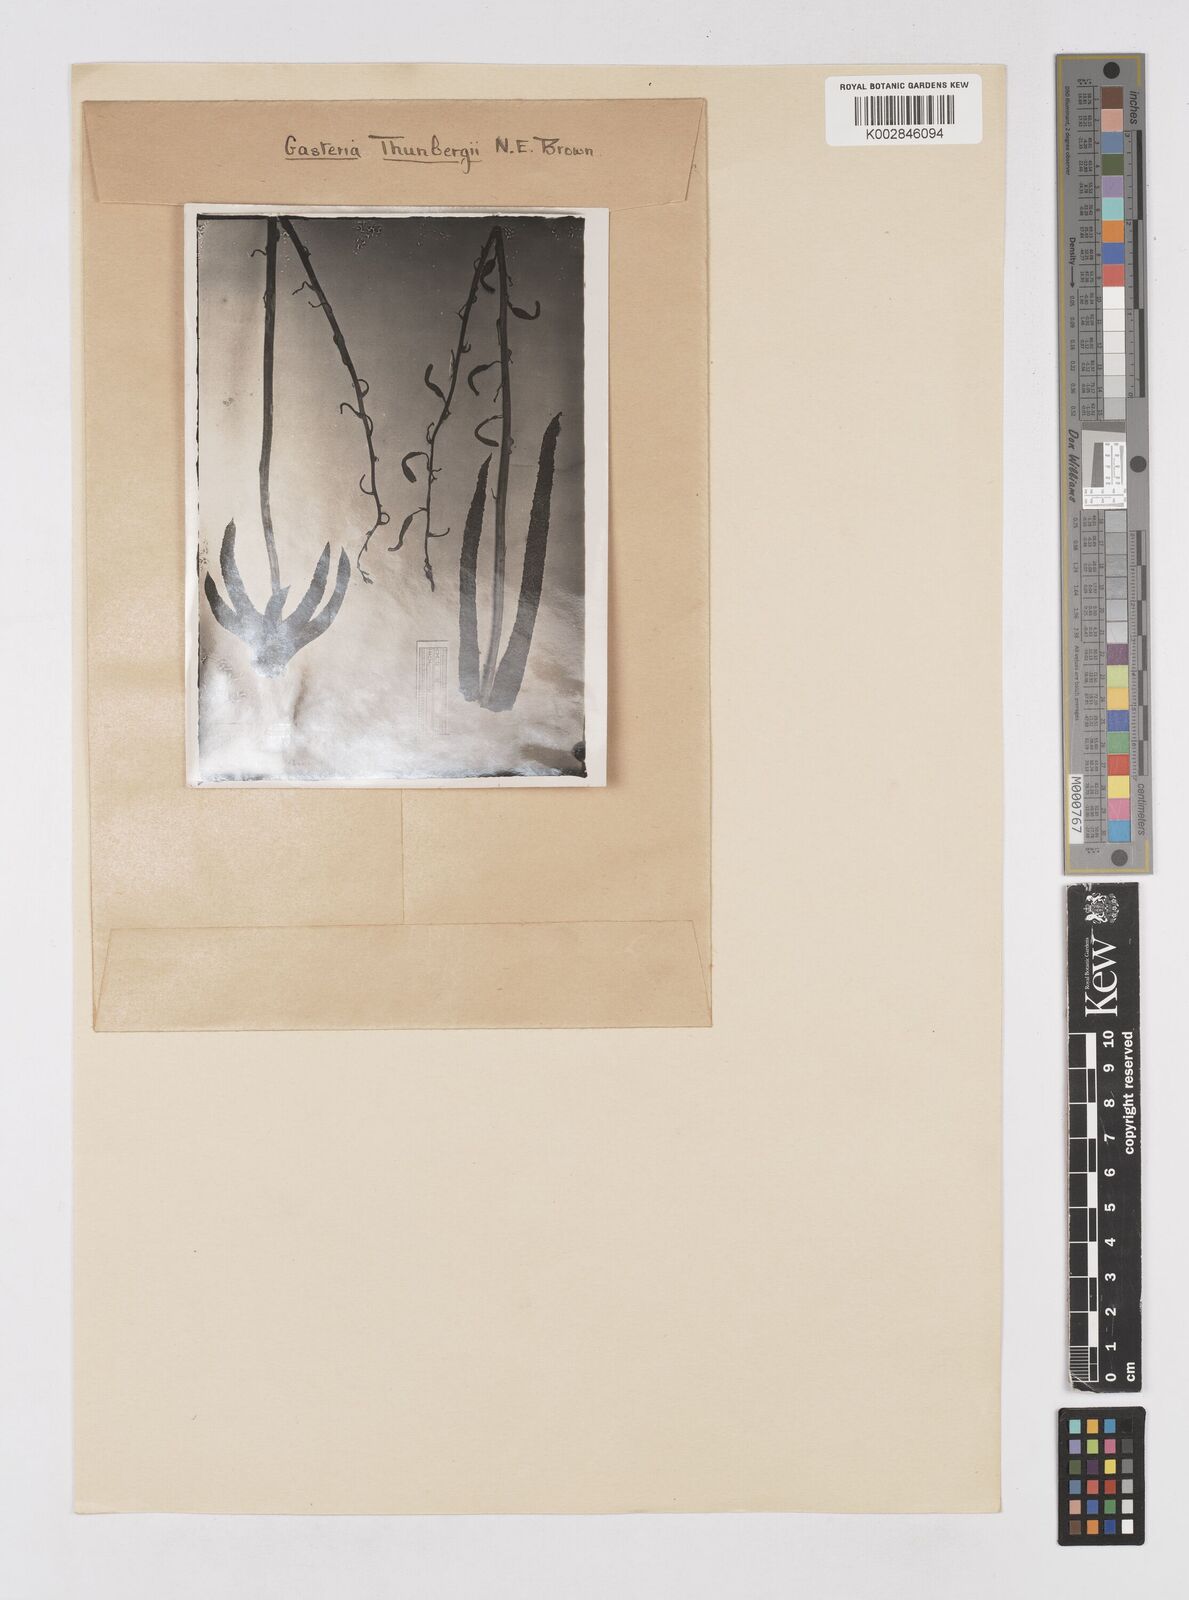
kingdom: Plantae
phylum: Tracheophyta
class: Liliopsida
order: Asparagales
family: Asphodelaceae
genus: Gasteria
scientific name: Gasteria carinata
